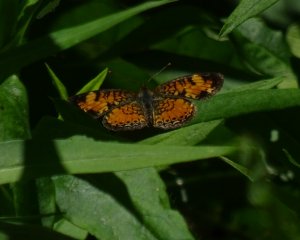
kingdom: Animalia
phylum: Arthropoda
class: Insecta
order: Lepidoptera
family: Nymphalidae
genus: Phyciodes
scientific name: Phyciodes tharos
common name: Northern Crescent
